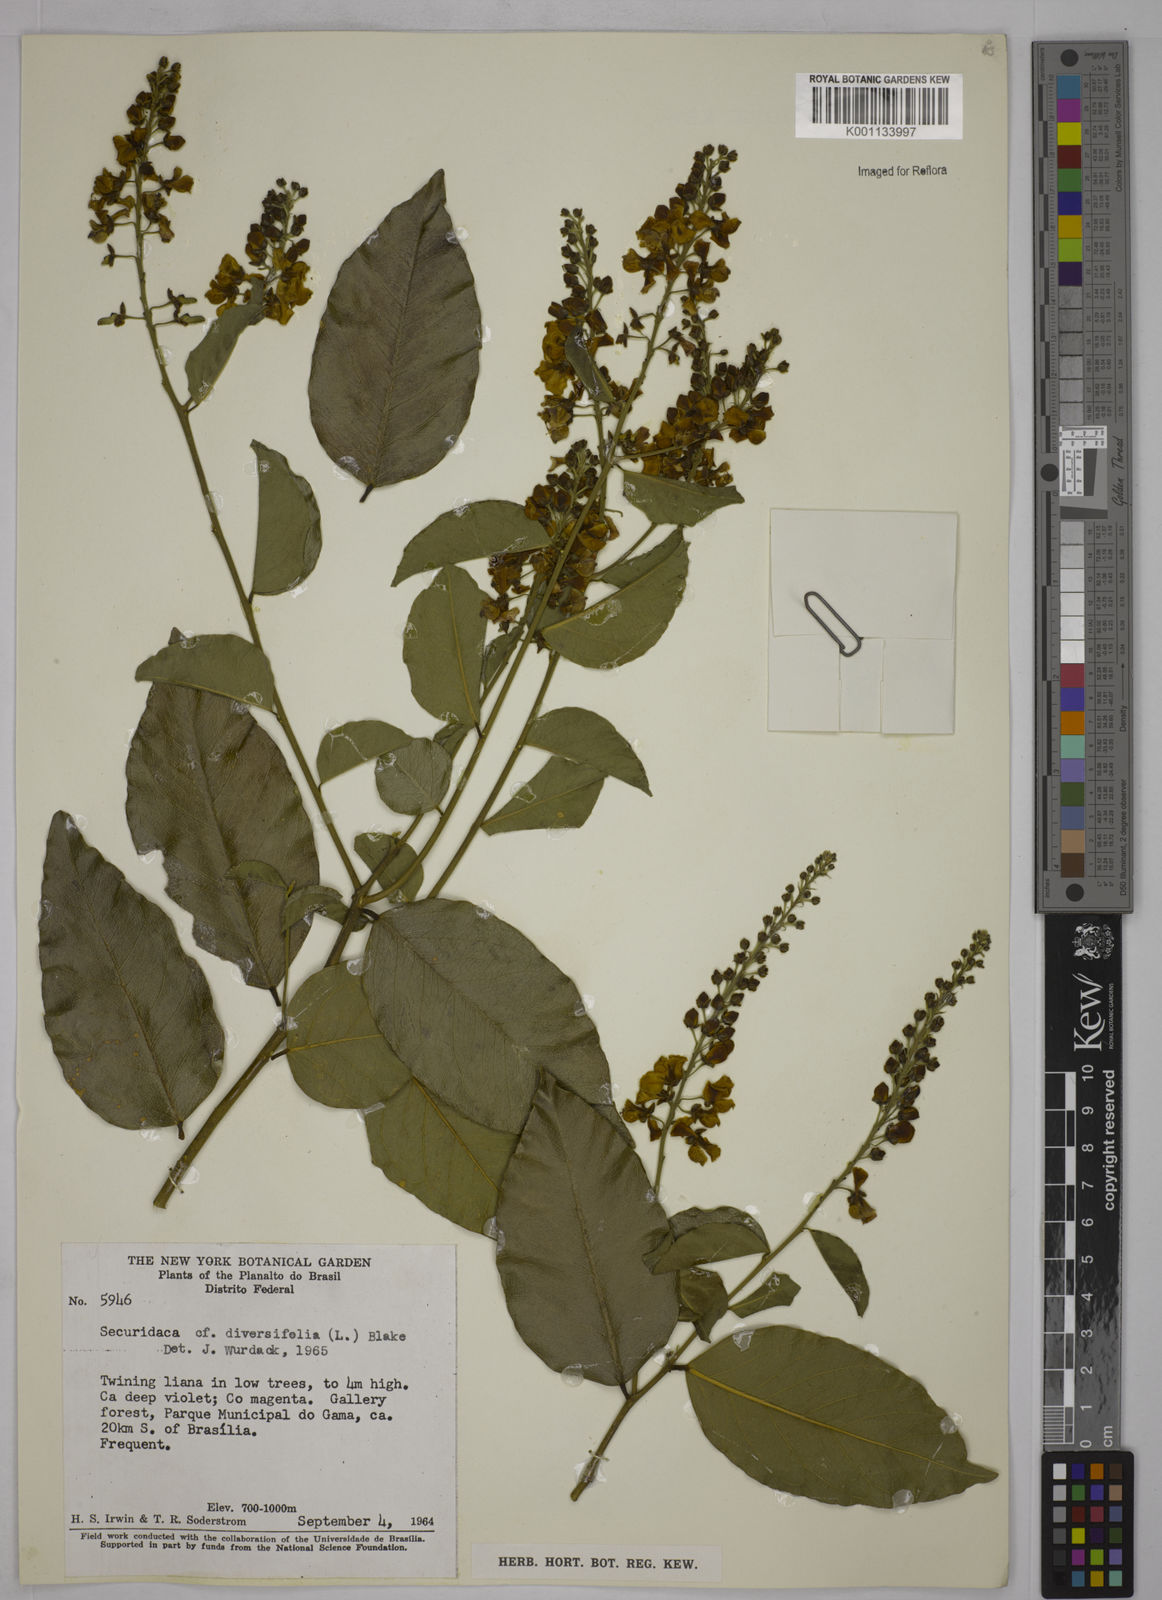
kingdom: Plantae
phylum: Tracheophyta
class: Magnoliopsida
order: Fabales
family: Polygalaceae
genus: Securidaca
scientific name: Securidaca diversifolia
